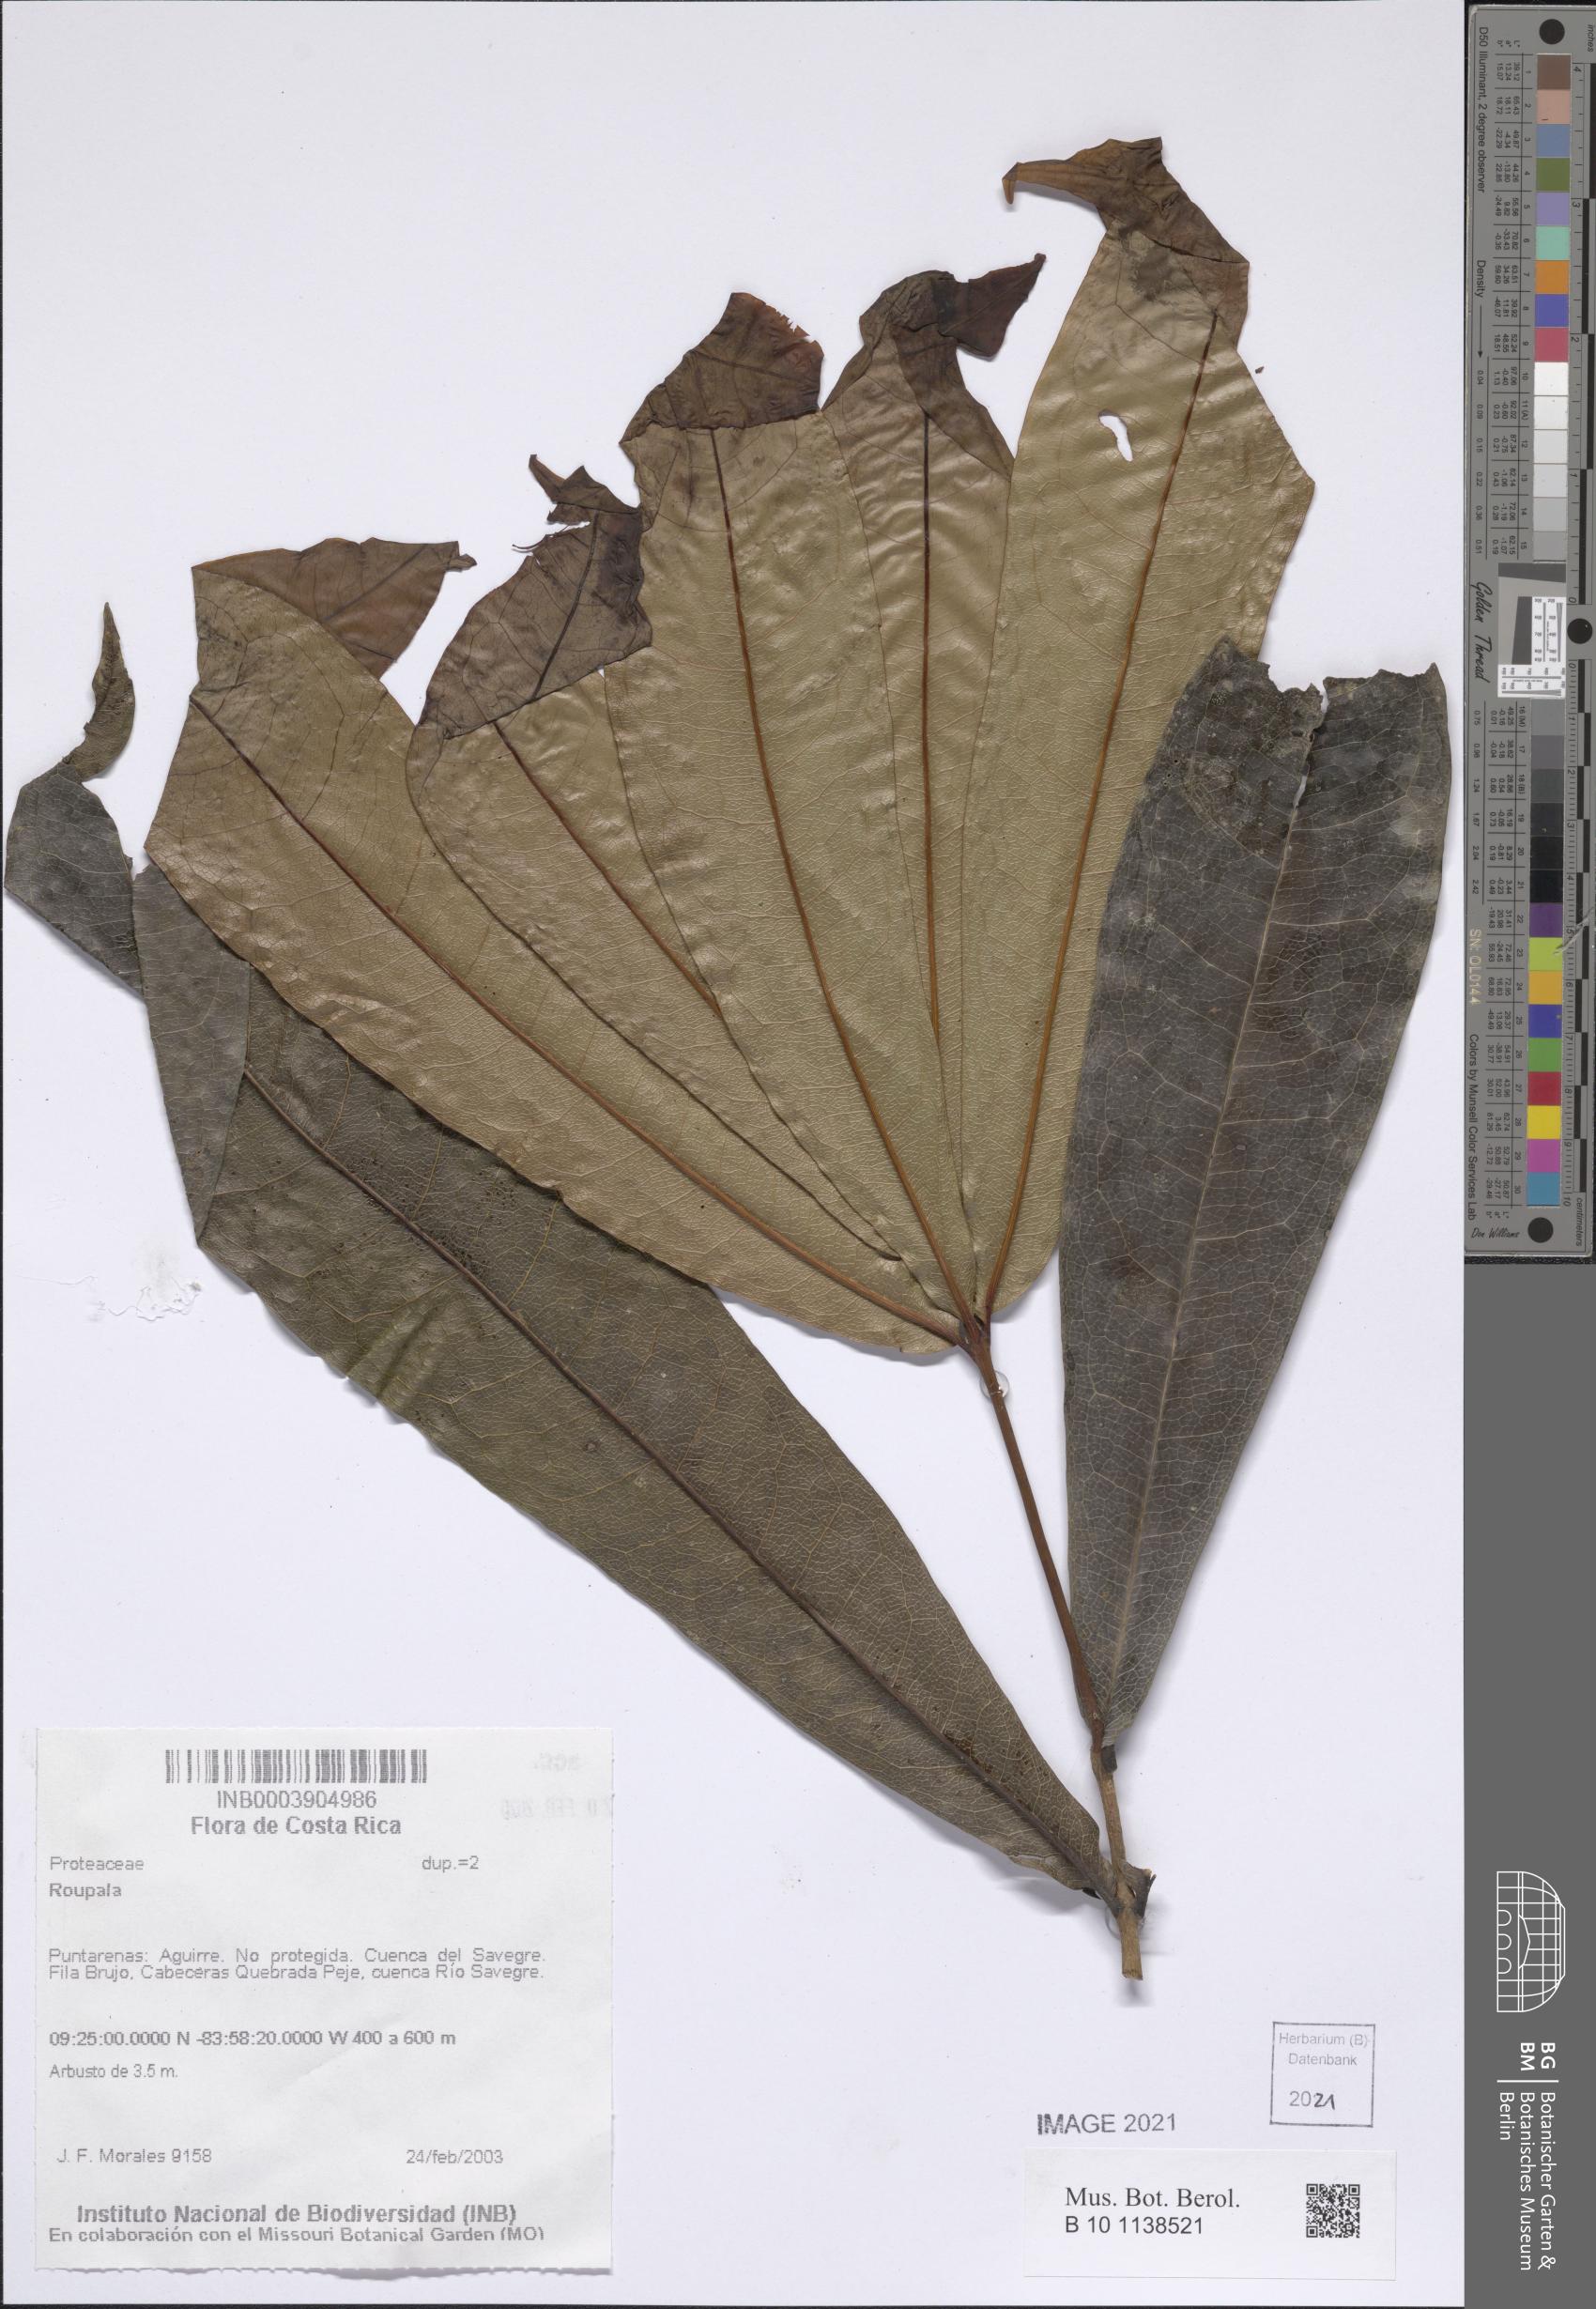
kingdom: Plantae
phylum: Tracheophyta
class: Magnoliopsida
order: Proteales
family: Proteaceae
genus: Roupala
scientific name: Roupala
